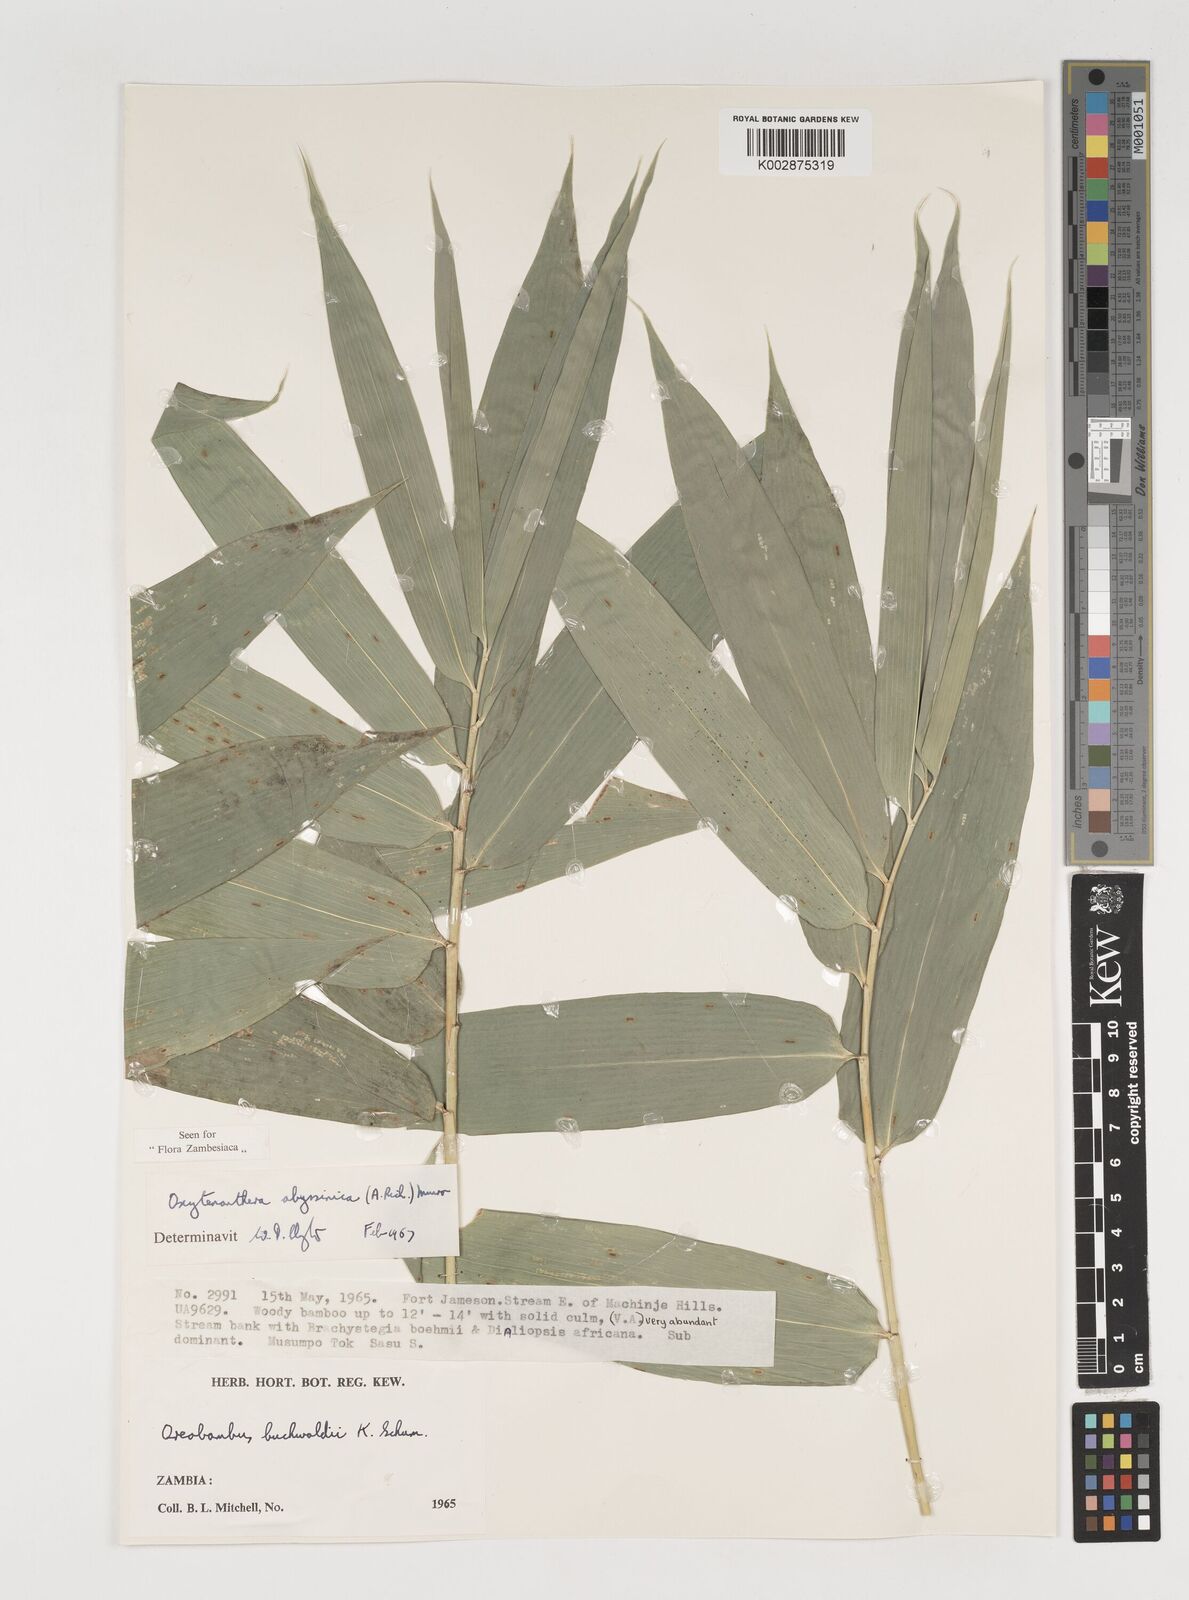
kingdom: Plantae
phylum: Tracheophyta
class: Liliopsida
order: Poales
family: Poaceae
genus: Oxytenanthera
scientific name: Oxytenanthera abyssinica
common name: Wine bamboo
